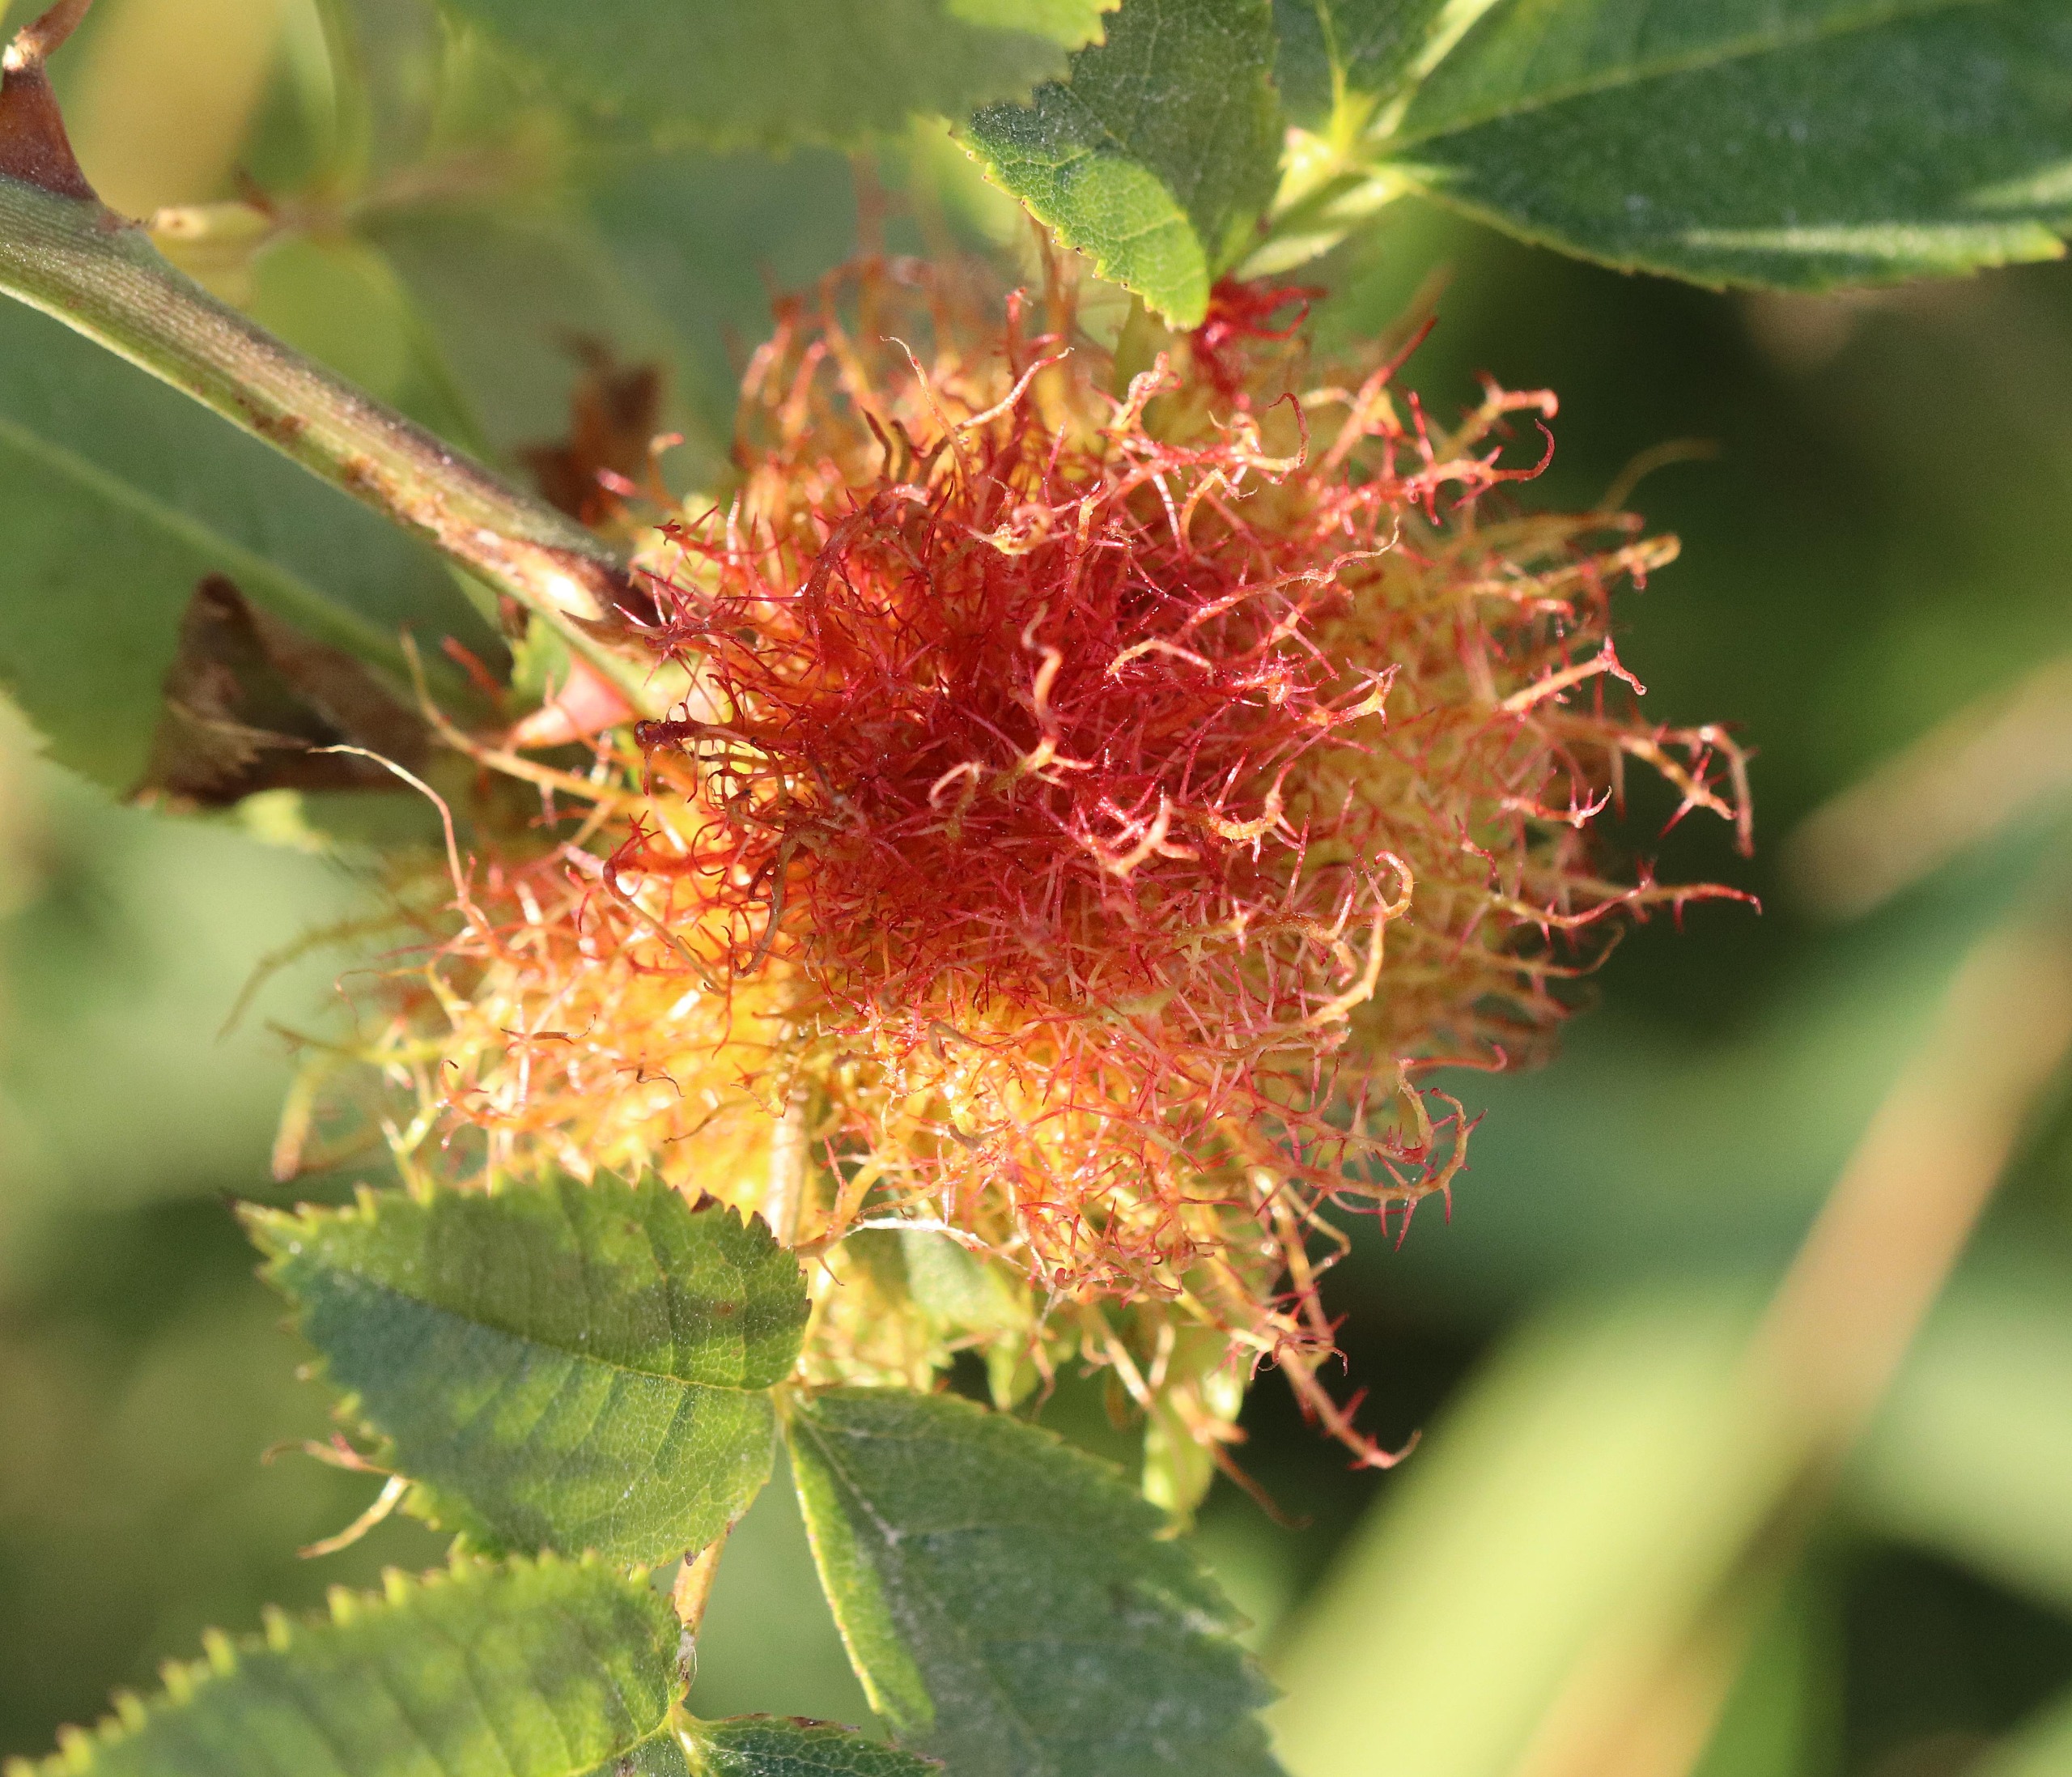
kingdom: Animalia
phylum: Arthropoda
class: Insecta
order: Hymenoptera
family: Cynipidae
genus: Diplolepis
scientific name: Diplolepis rosae
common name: Bedeguargalhveps
